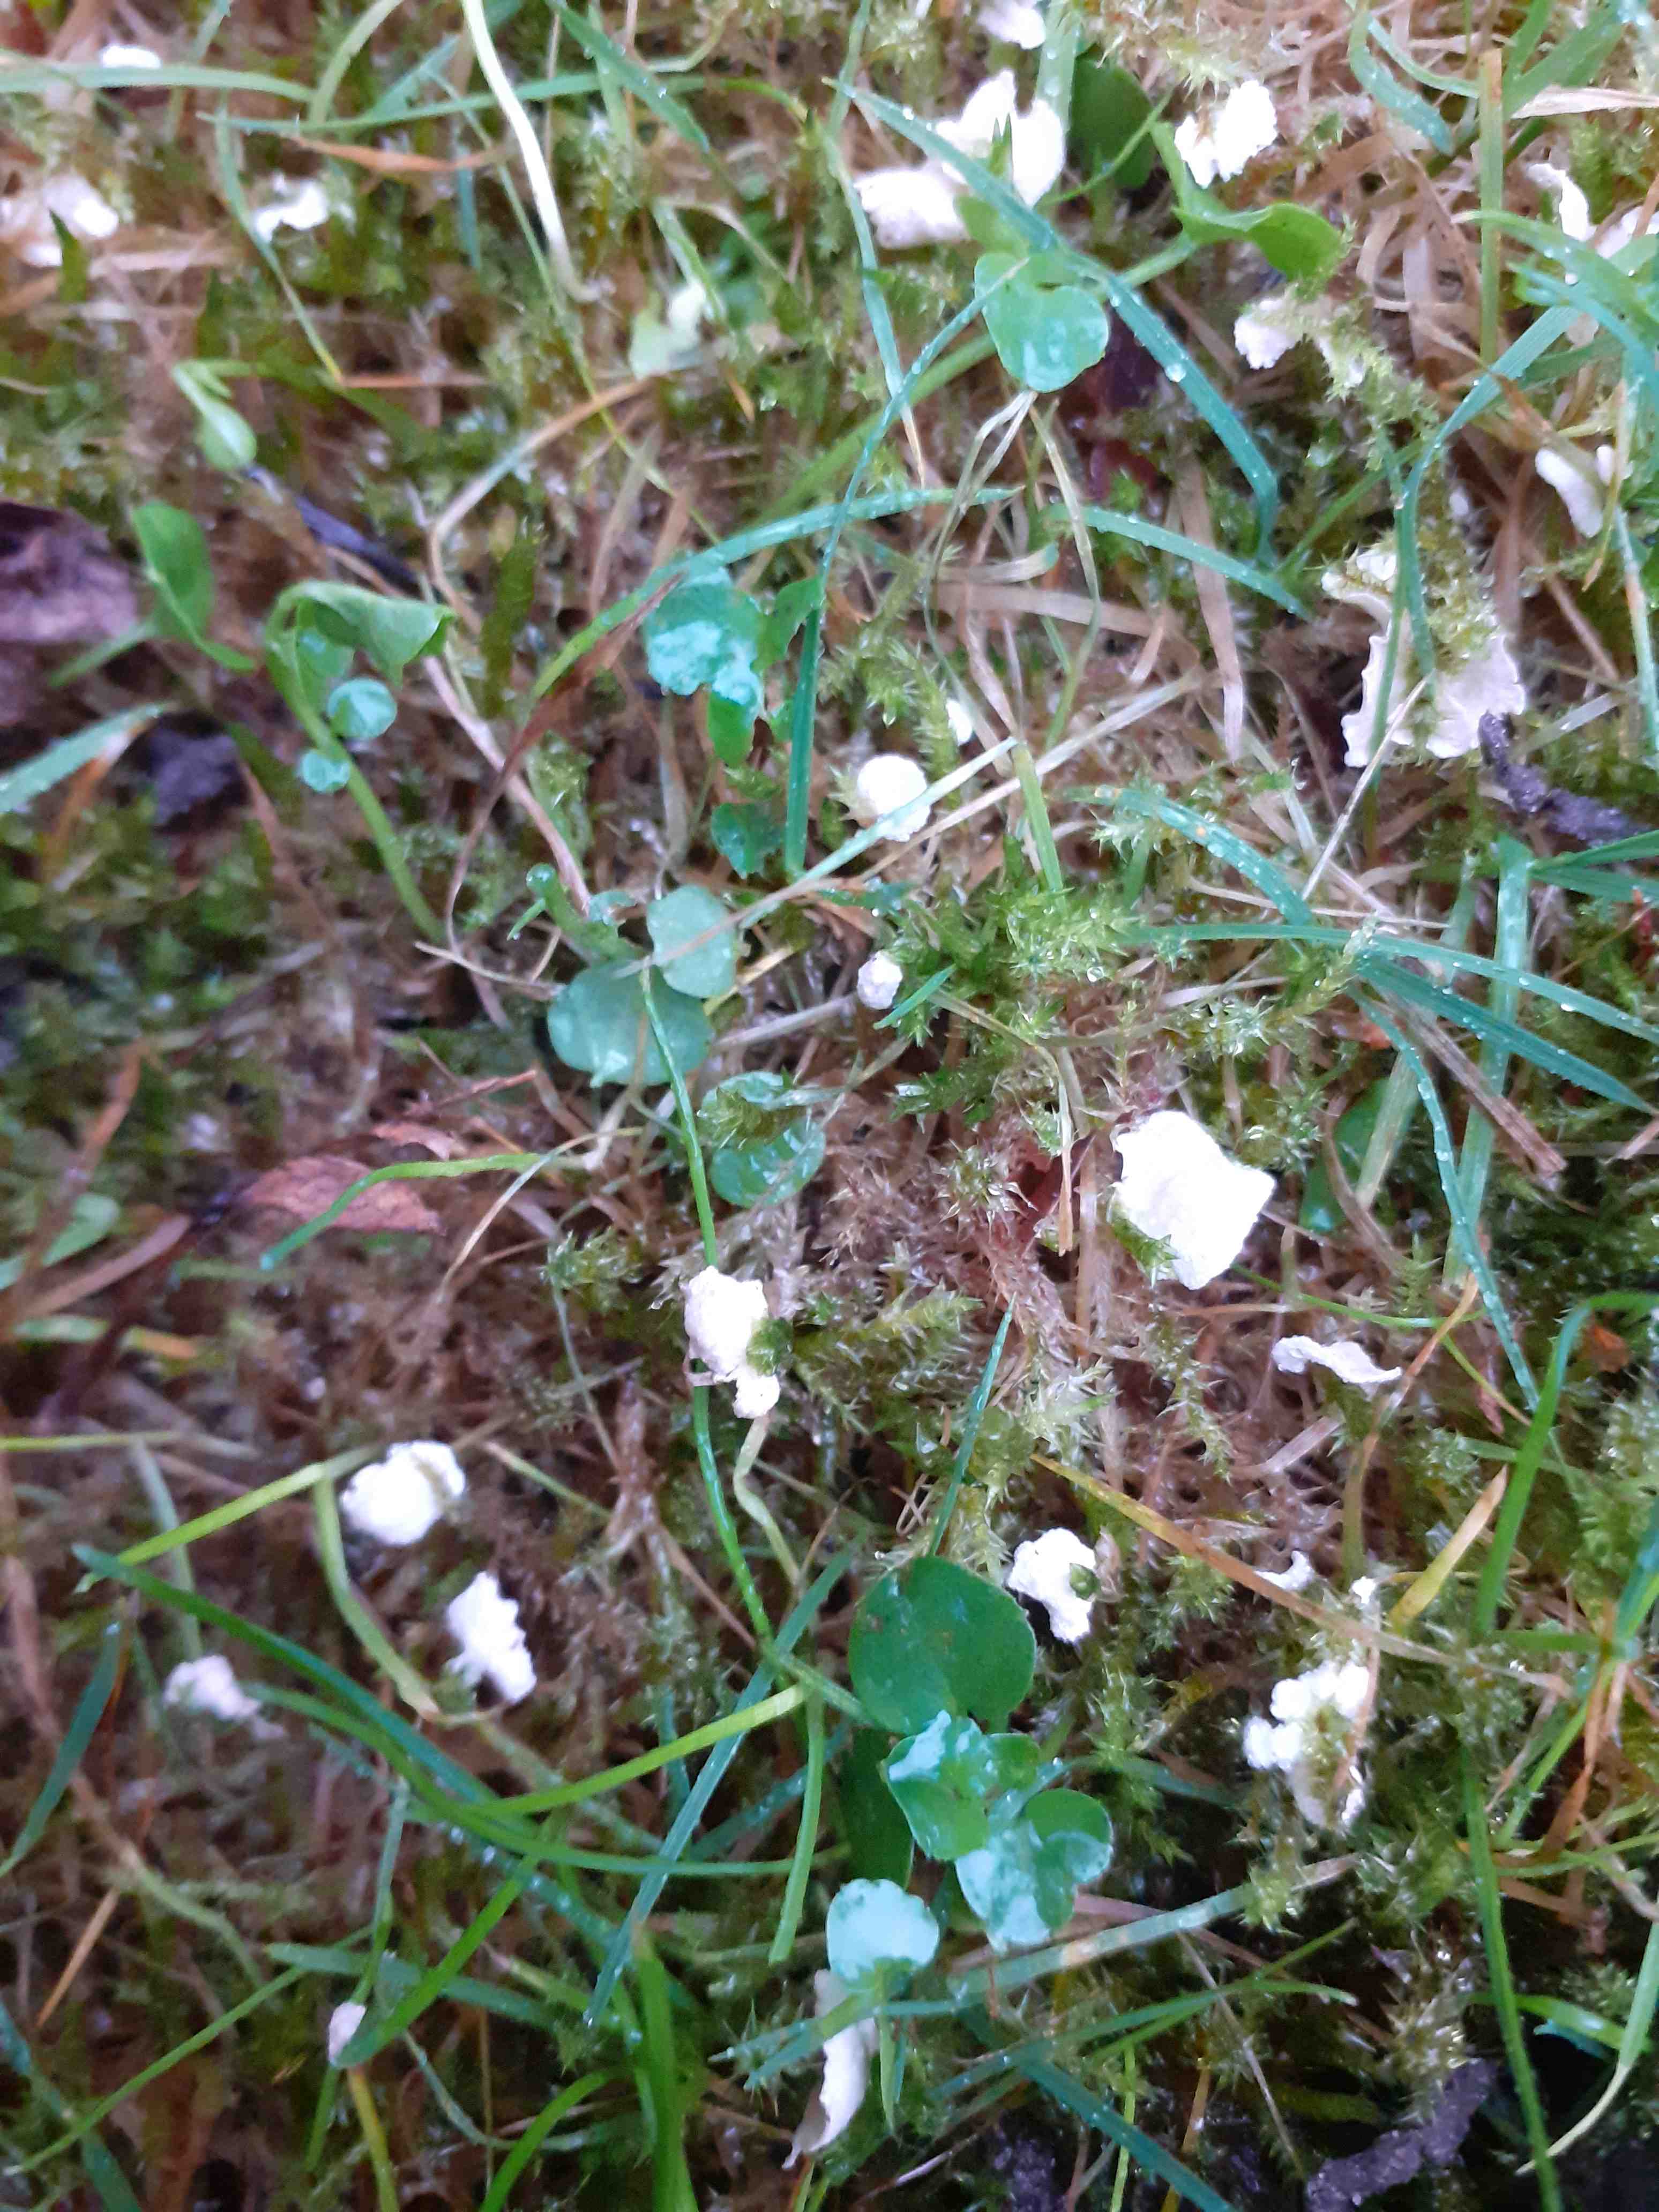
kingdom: Fungi
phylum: Basidiomycota
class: Agaricomycetes
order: Agaricales
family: Hygrophoraceae
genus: Arrhenia
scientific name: Arrhenia retiruga
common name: lille fontænehat
